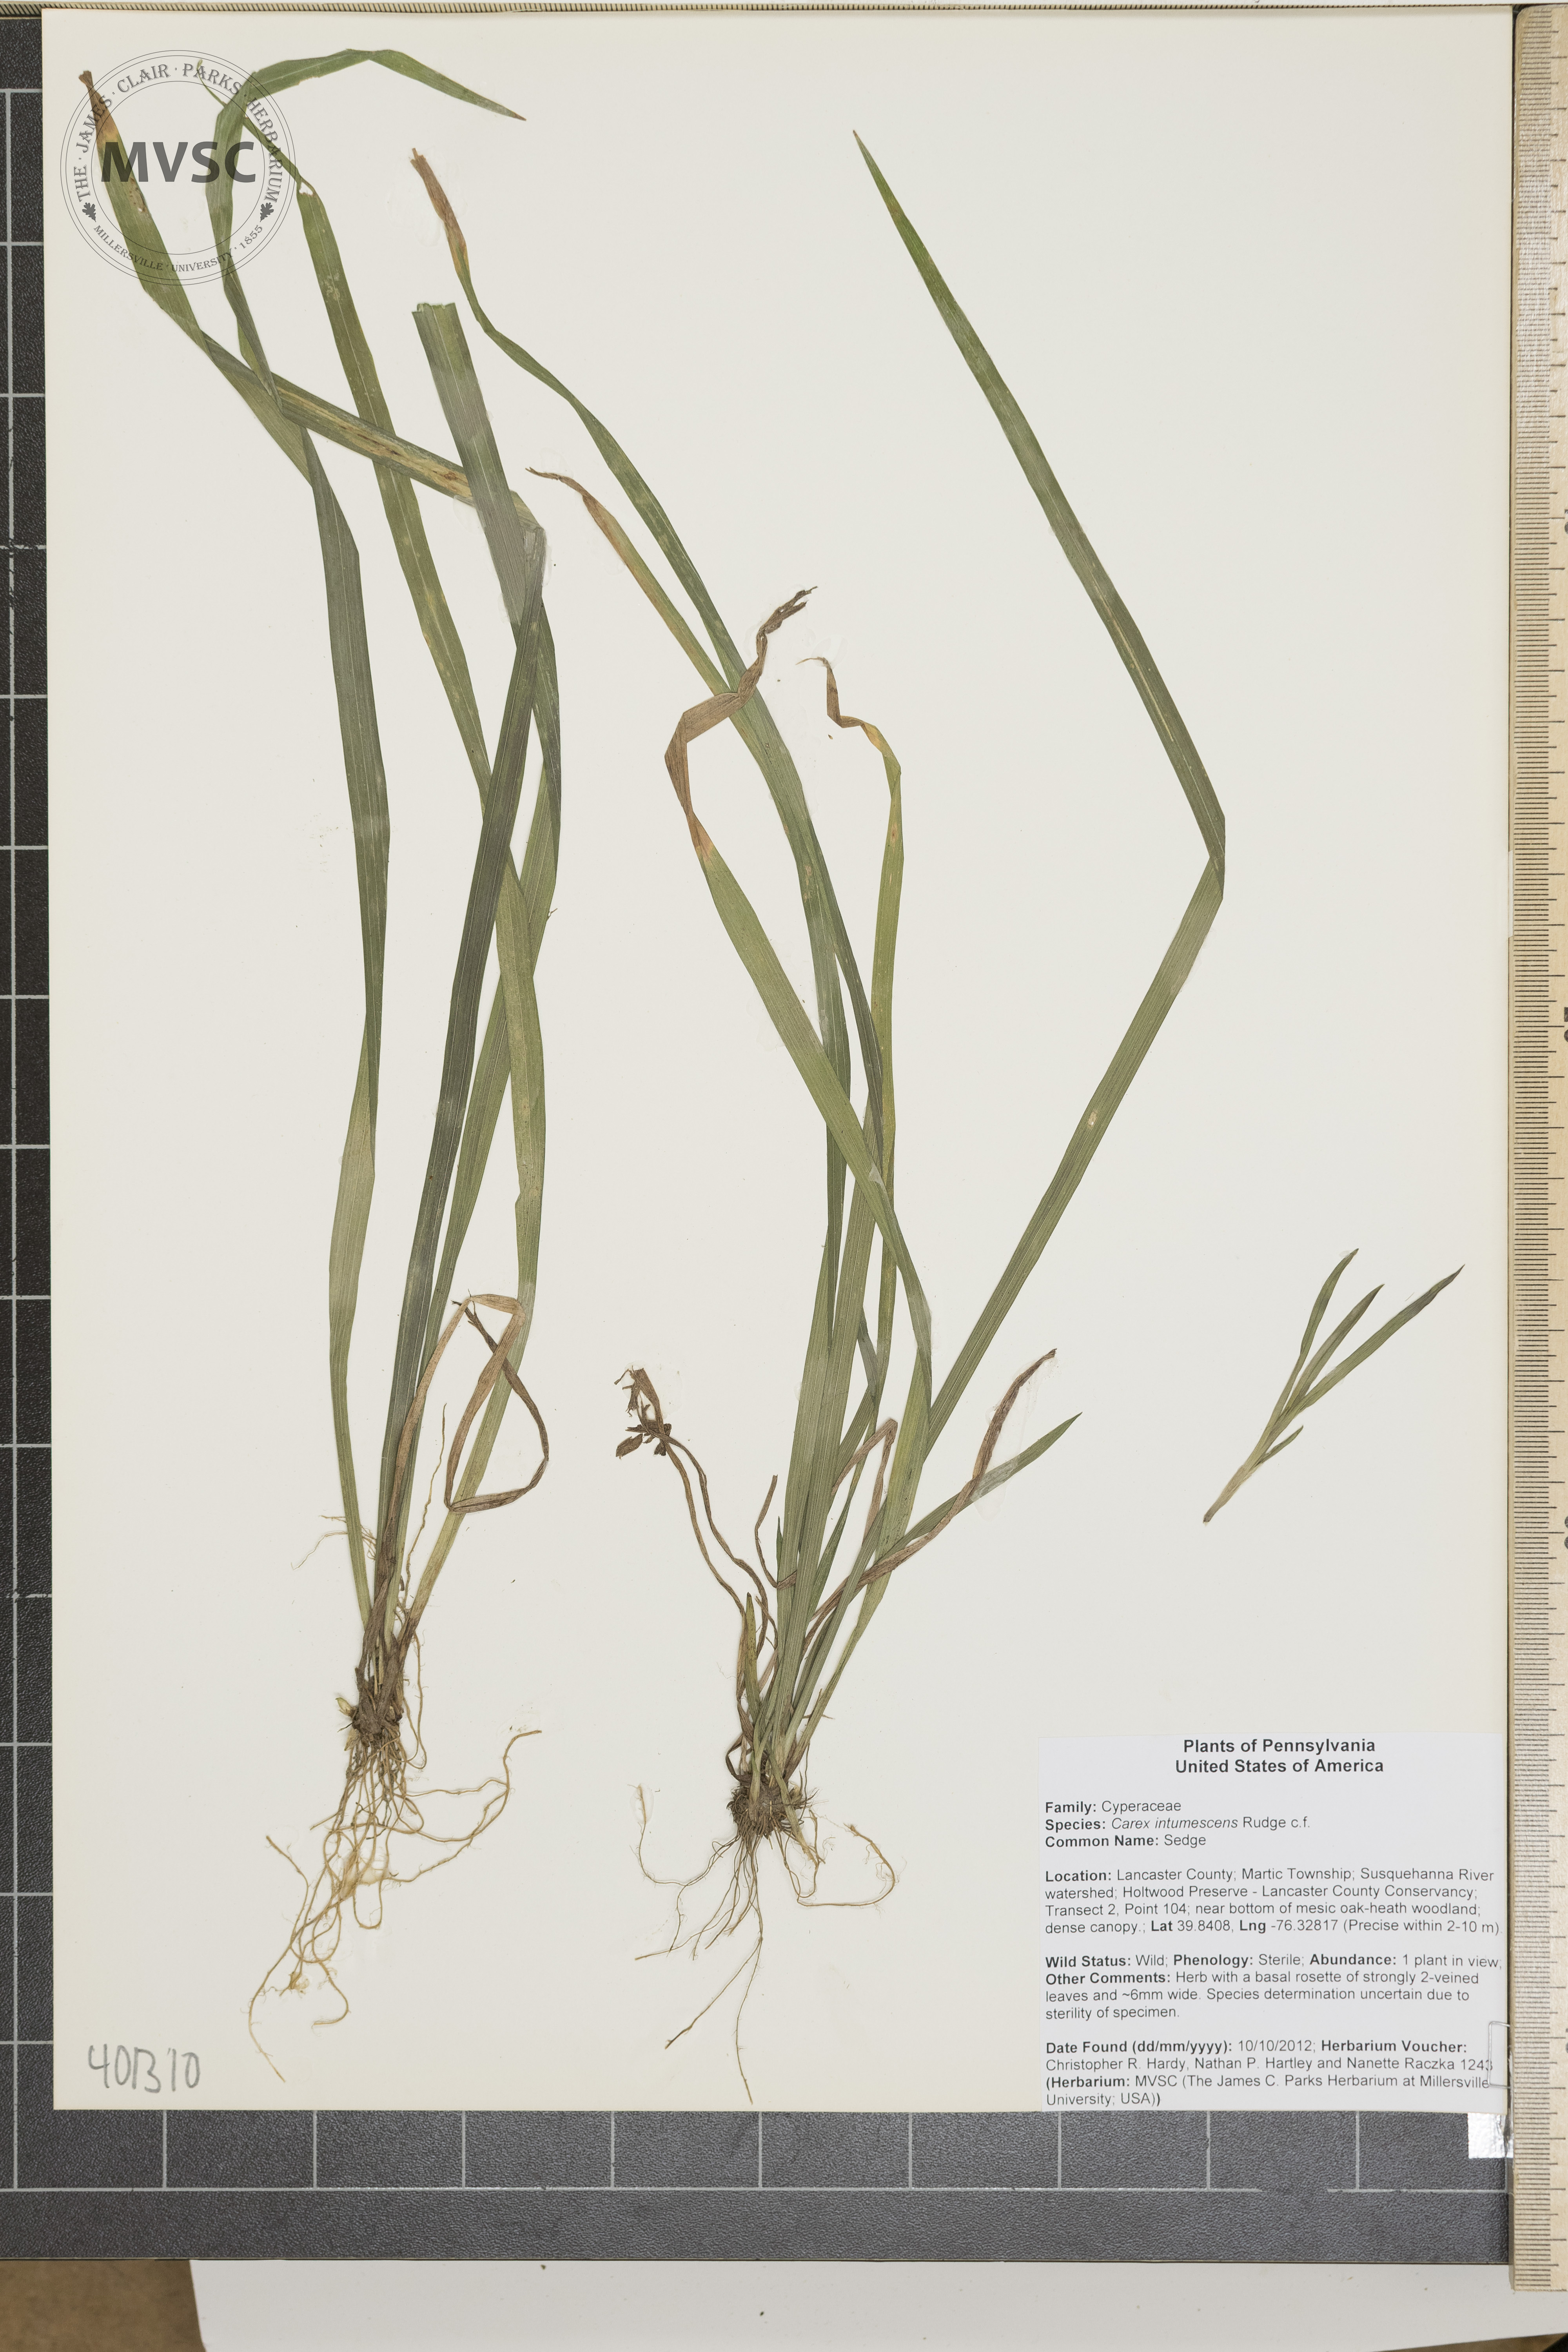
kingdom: Plantae
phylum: Tracheophyta
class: Liliopsida
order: Poales
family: Cyperaceae
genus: Carex
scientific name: Carex intumescens
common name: Sedge
